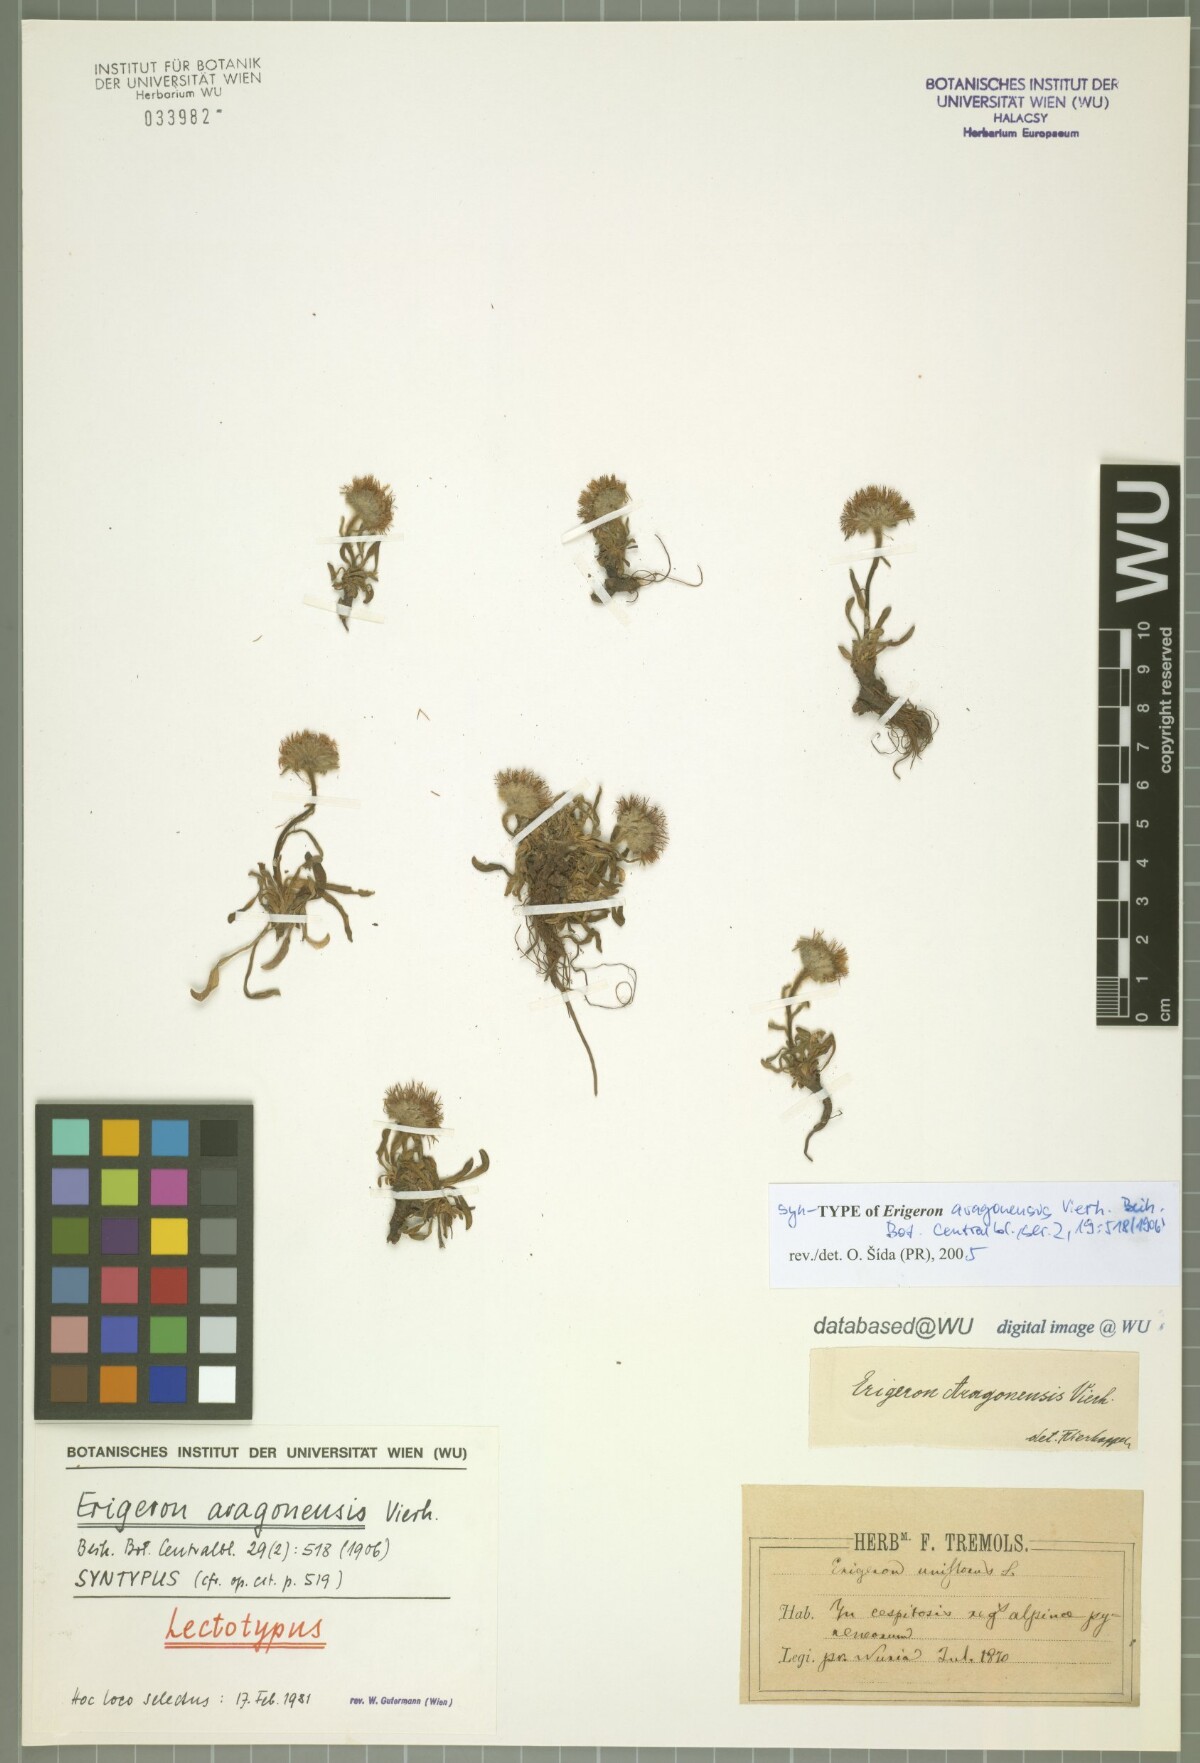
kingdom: Plantae
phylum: Tracheophyta
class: Magnoliopsida
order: Asterales
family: Asteraceae
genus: Erigeron
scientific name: Erigeron aragonensis
